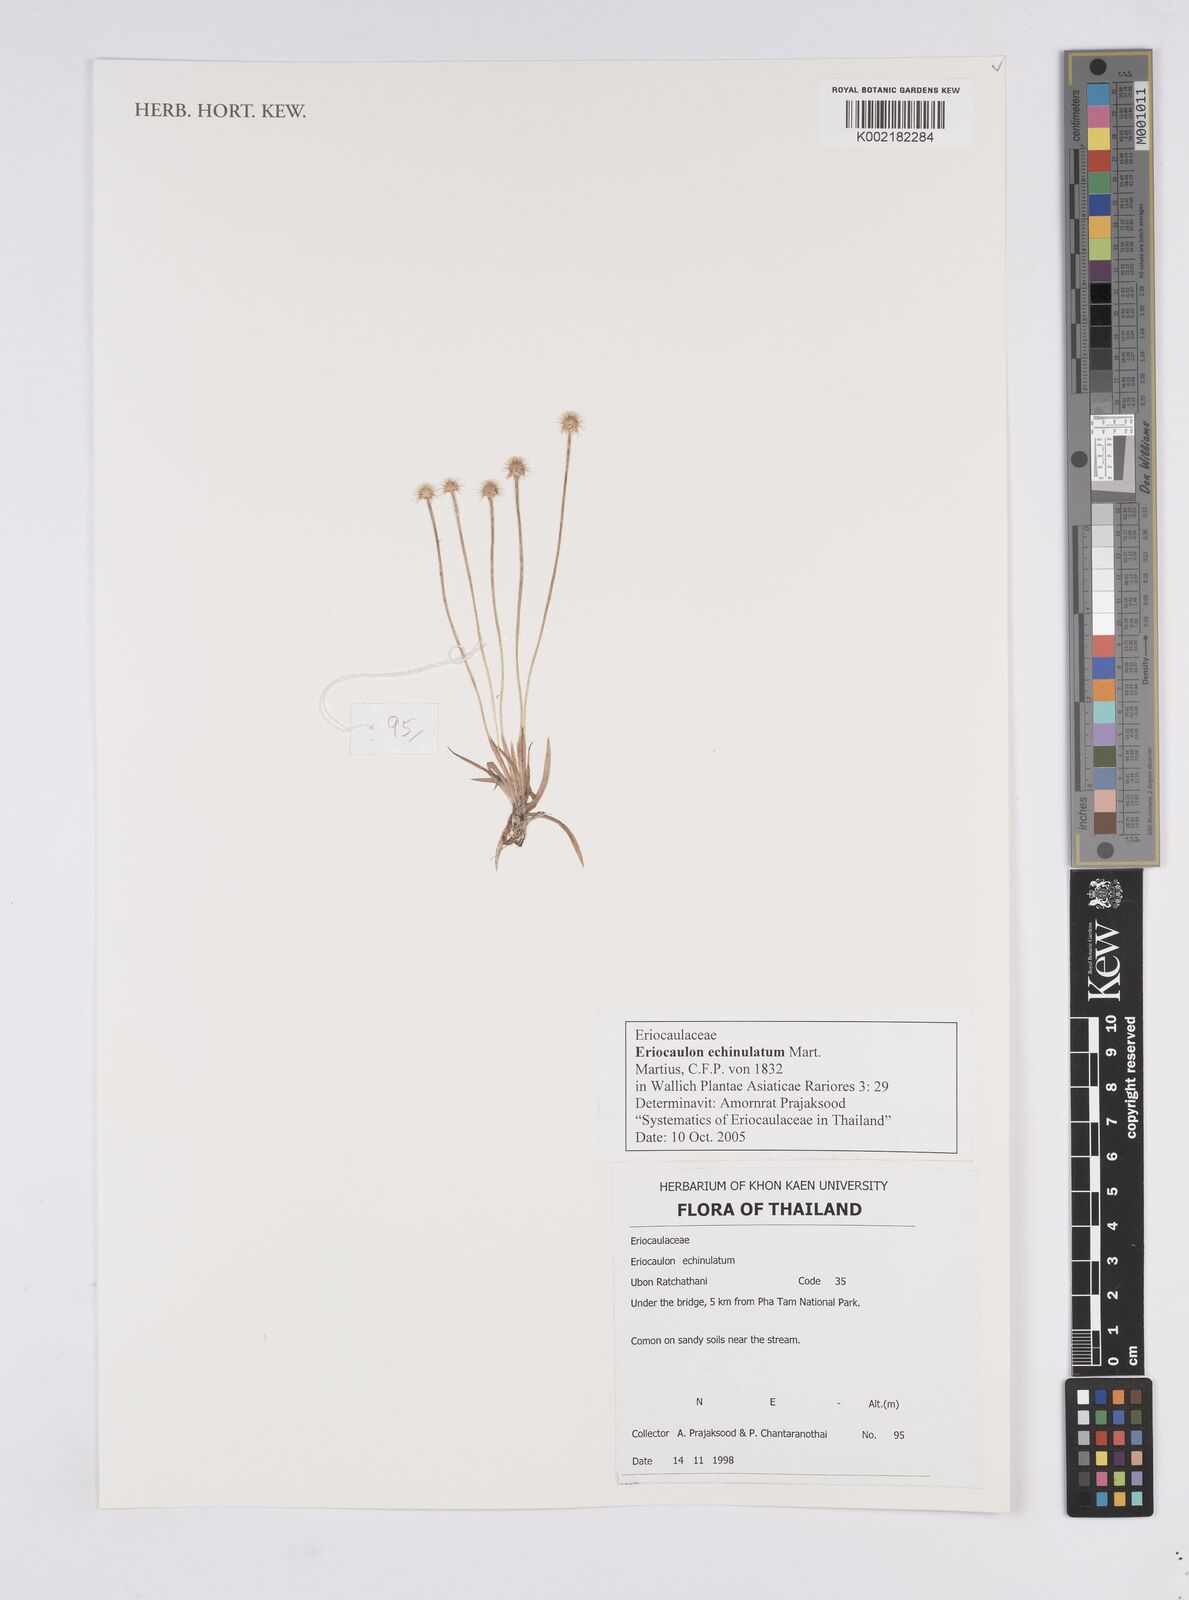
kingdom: Plantae
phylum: Tracheophyta
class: Liliopsida
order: Poales
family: Eriocaulaceae
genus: Eriocaulon
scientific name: Eriocaulon echinulatum
